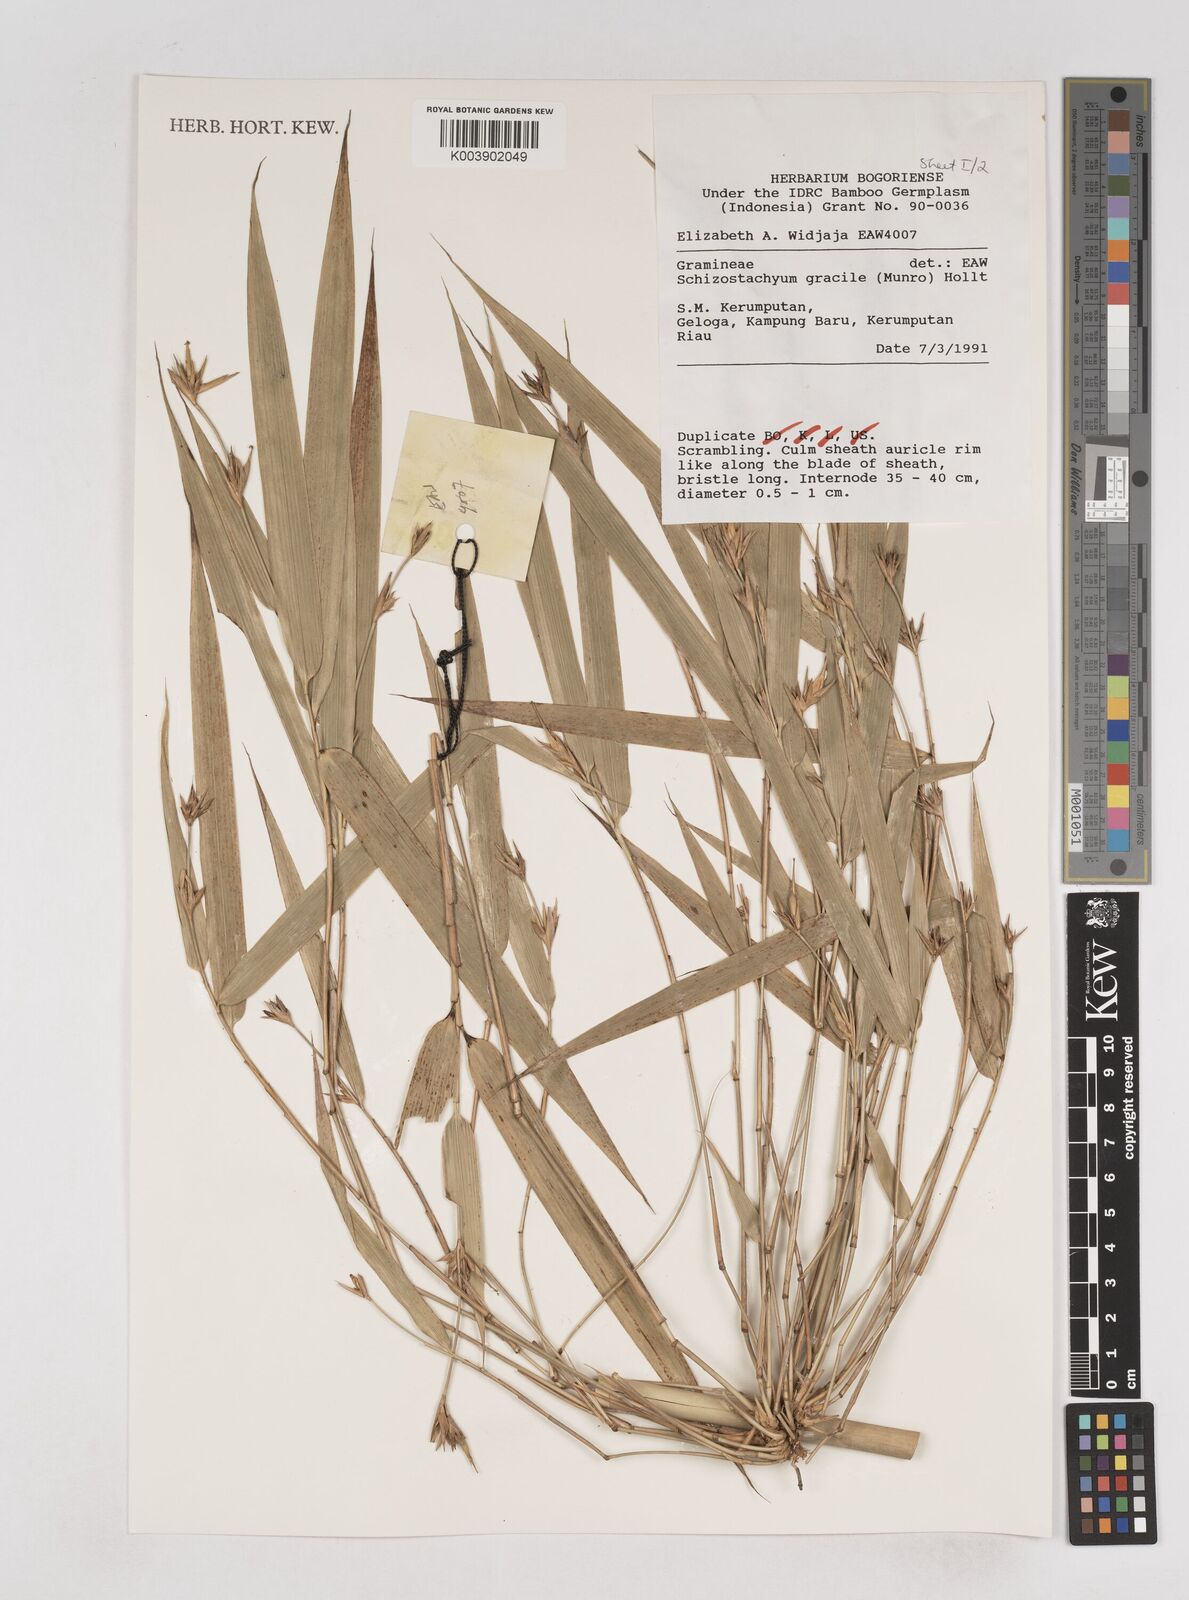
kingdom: Plantae
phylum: Tracheophyta
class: Liliopsida
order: Poales
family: Poaceae
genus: Schizostachyum
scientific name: Schizostachyum gracile
